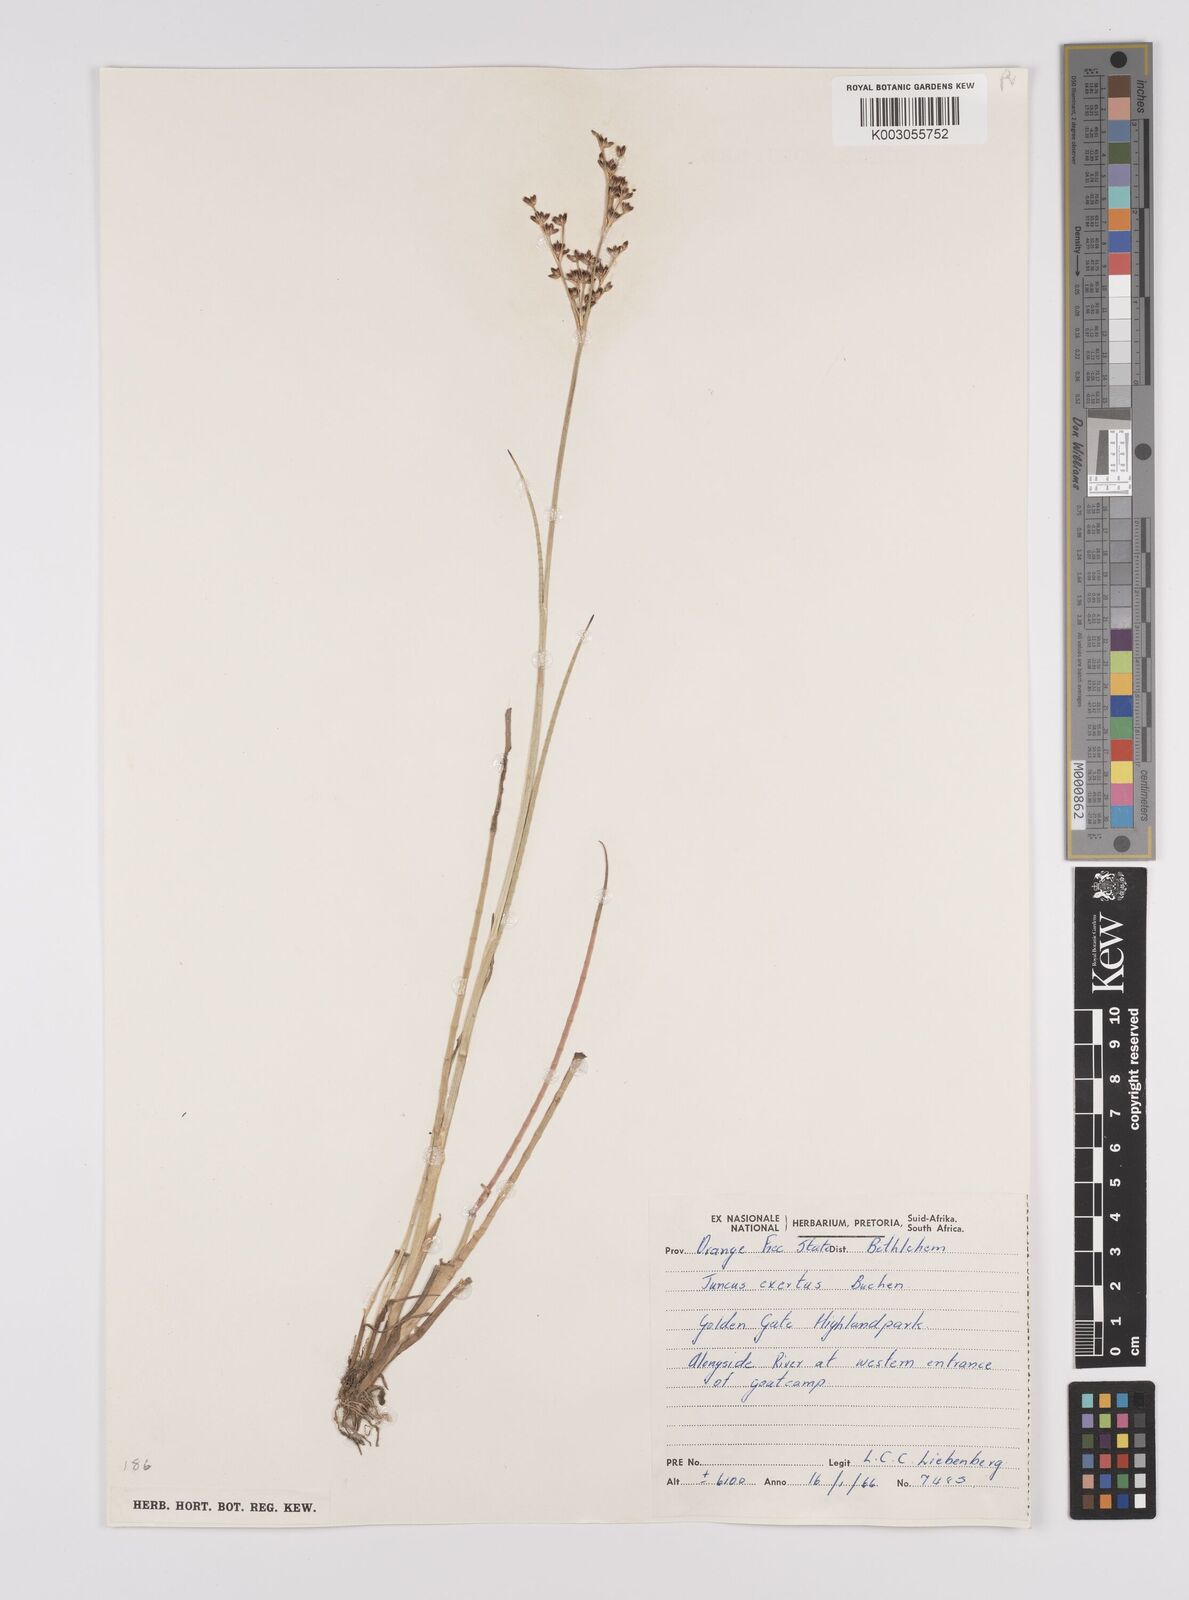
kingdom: Plantae
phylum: Tracheophyta
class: Liliopsida
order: Poales
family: Juncaceae
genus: Juncus
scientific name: Juncus exsertus
